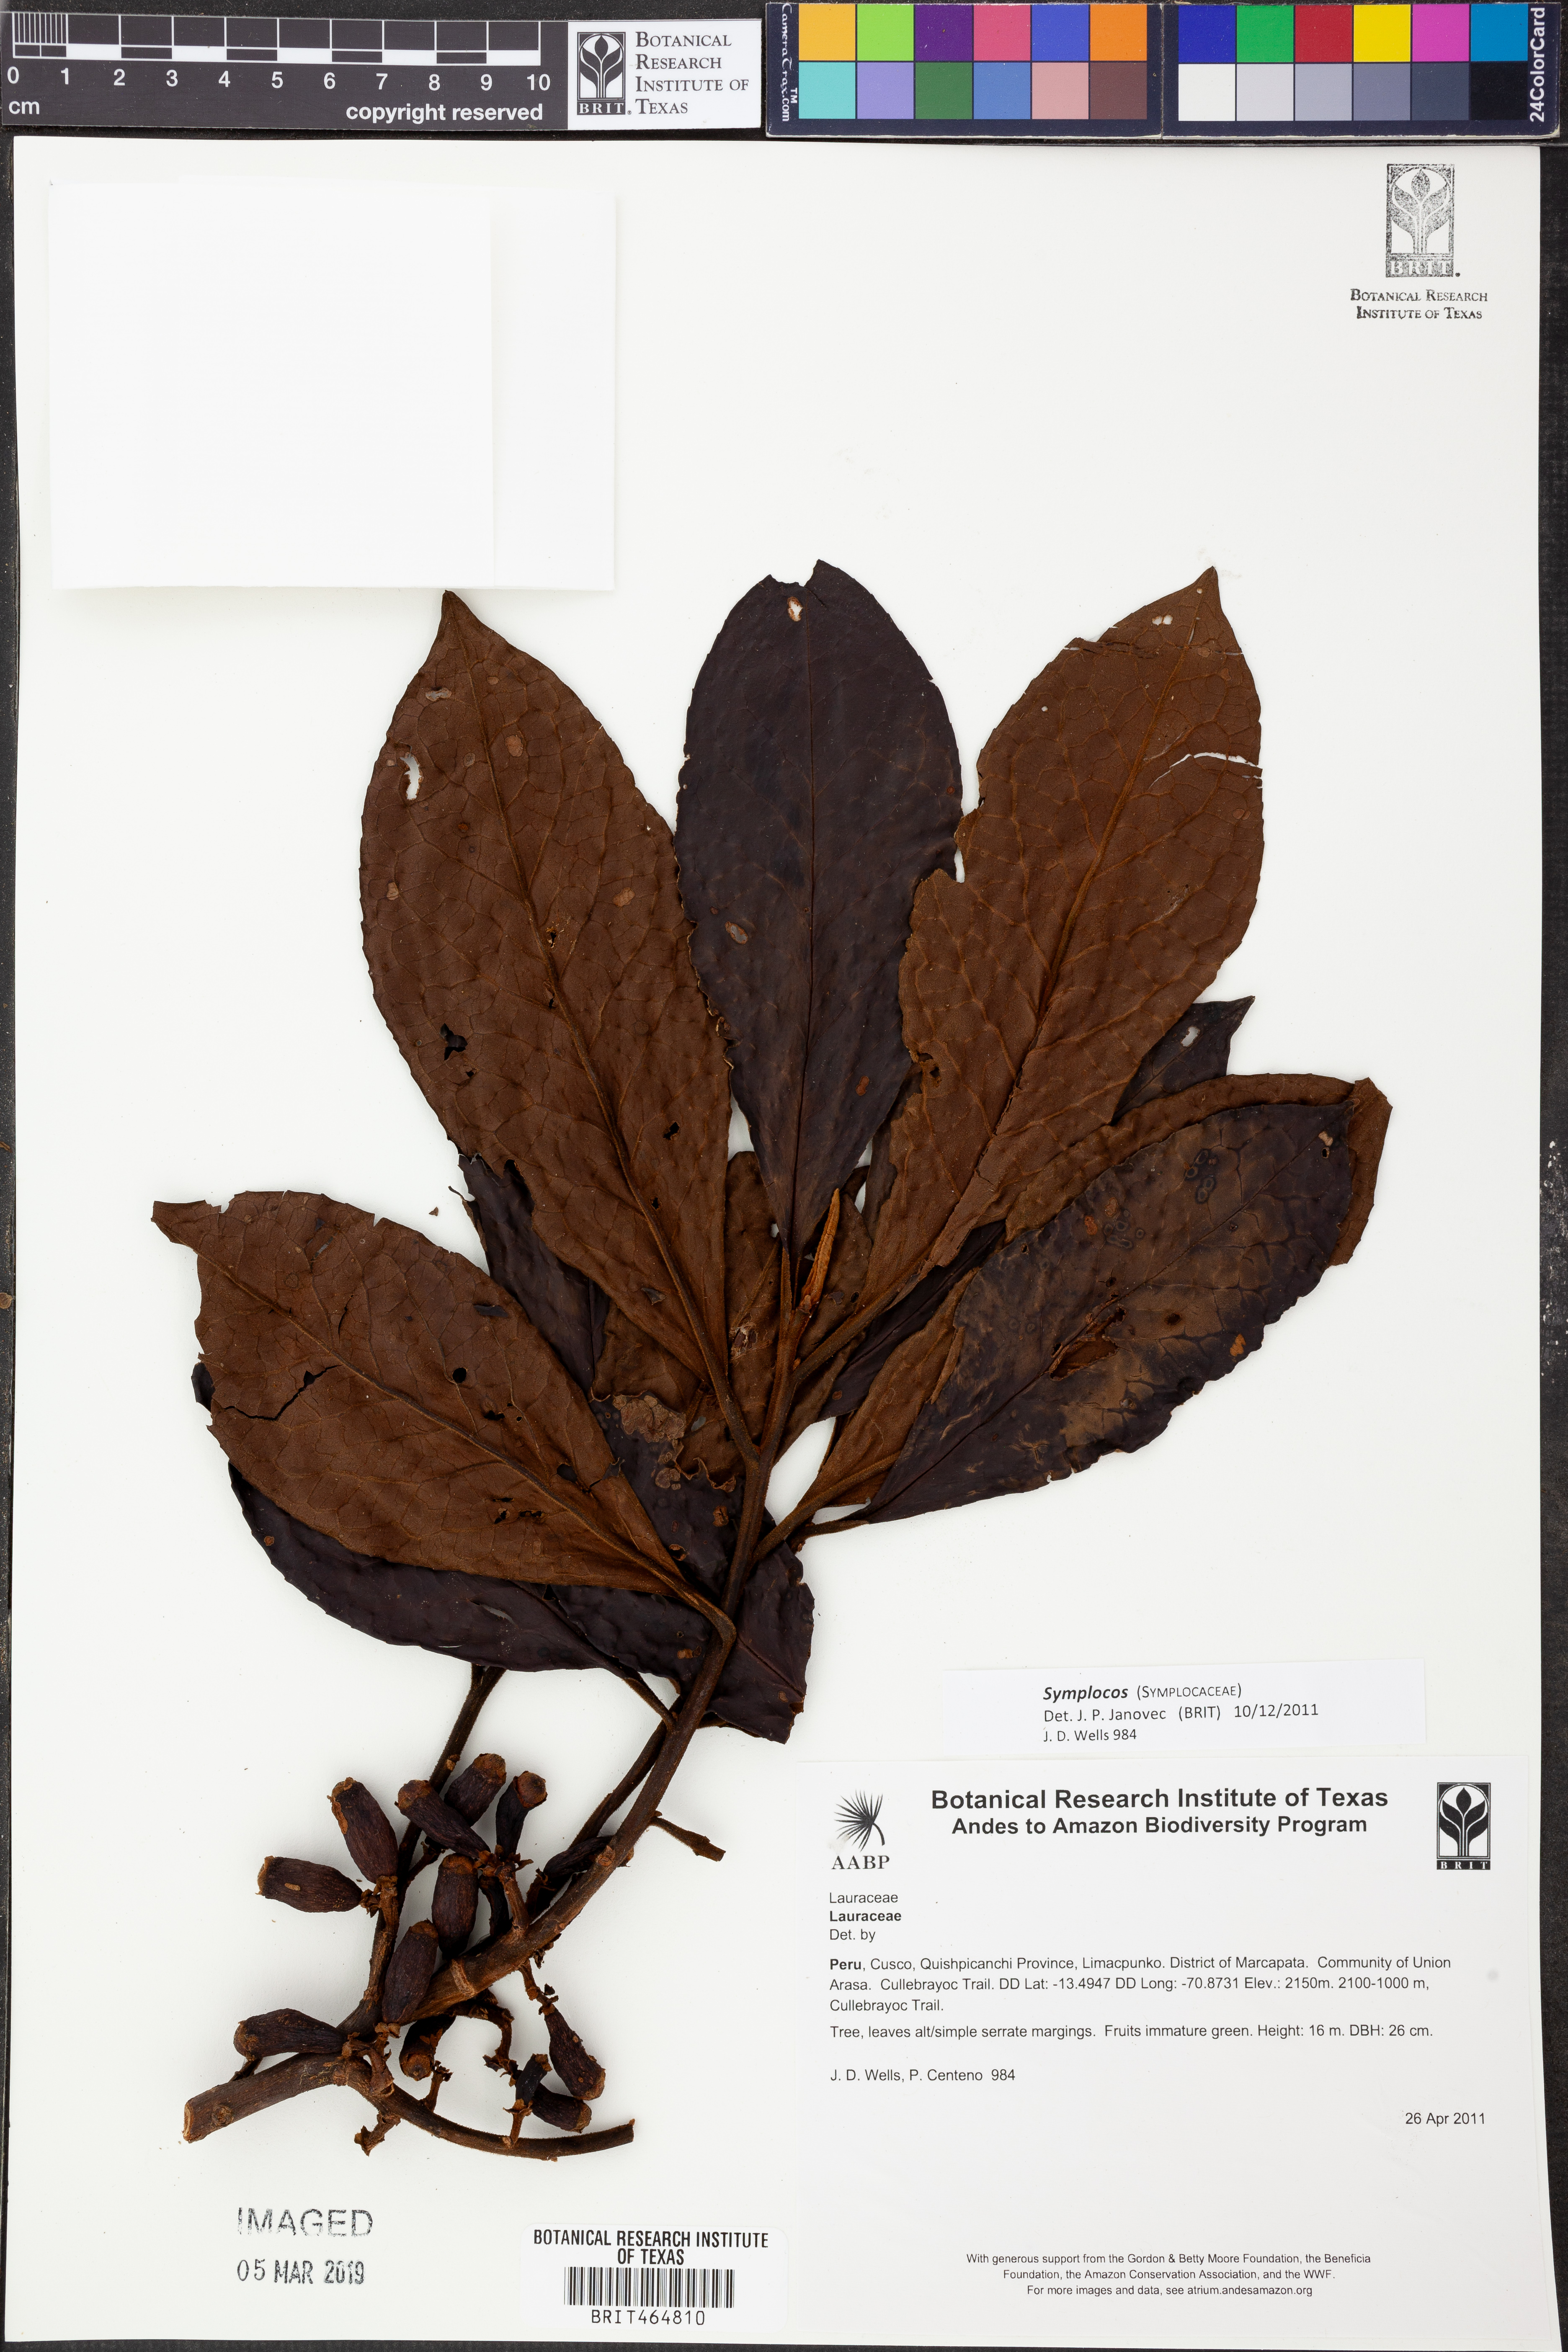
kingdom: Plantae
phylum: Tracheophyta
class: Magnoliopsida
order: Ericales
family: Symplocaceae
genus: Symplocos
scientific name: Symplocos
